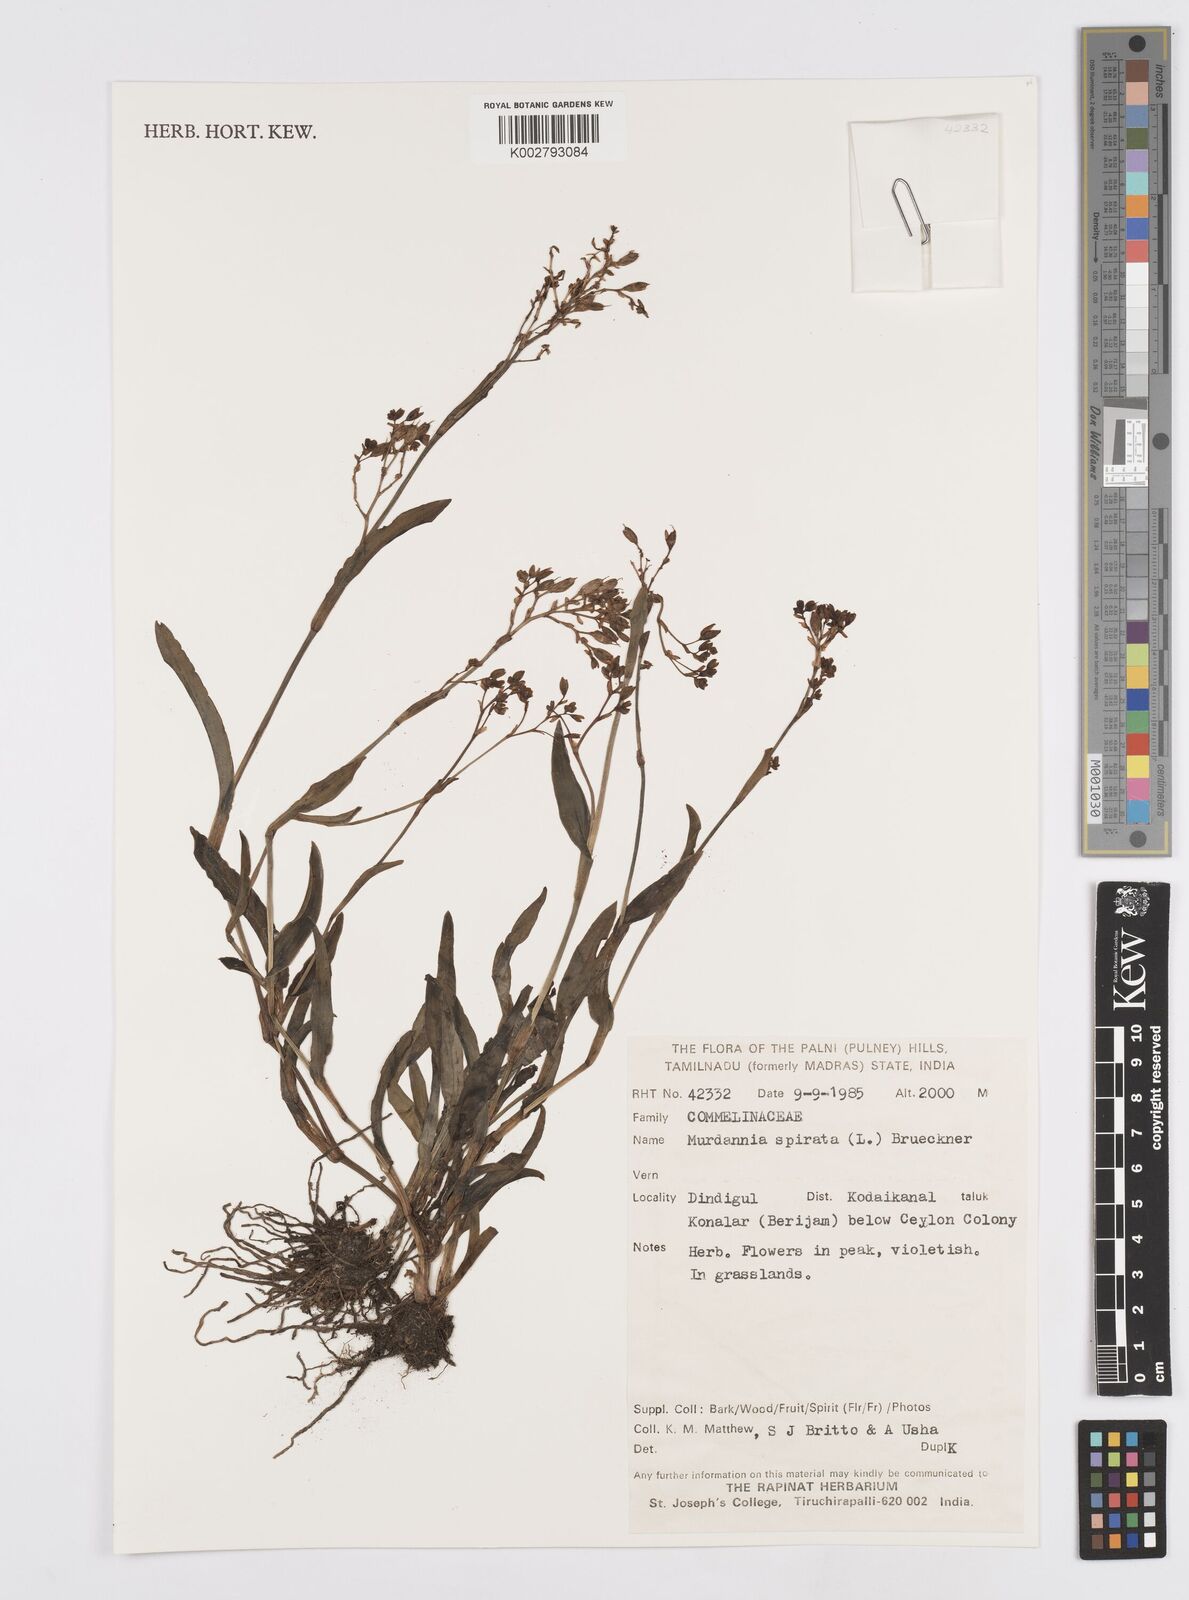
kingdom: Plantae
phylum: Tracheophyta
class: Liliopsida
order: Commelinales
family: Commelinaceae
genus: Murdannia
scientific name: Murdannia spirata
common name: Asiatic dewflower
